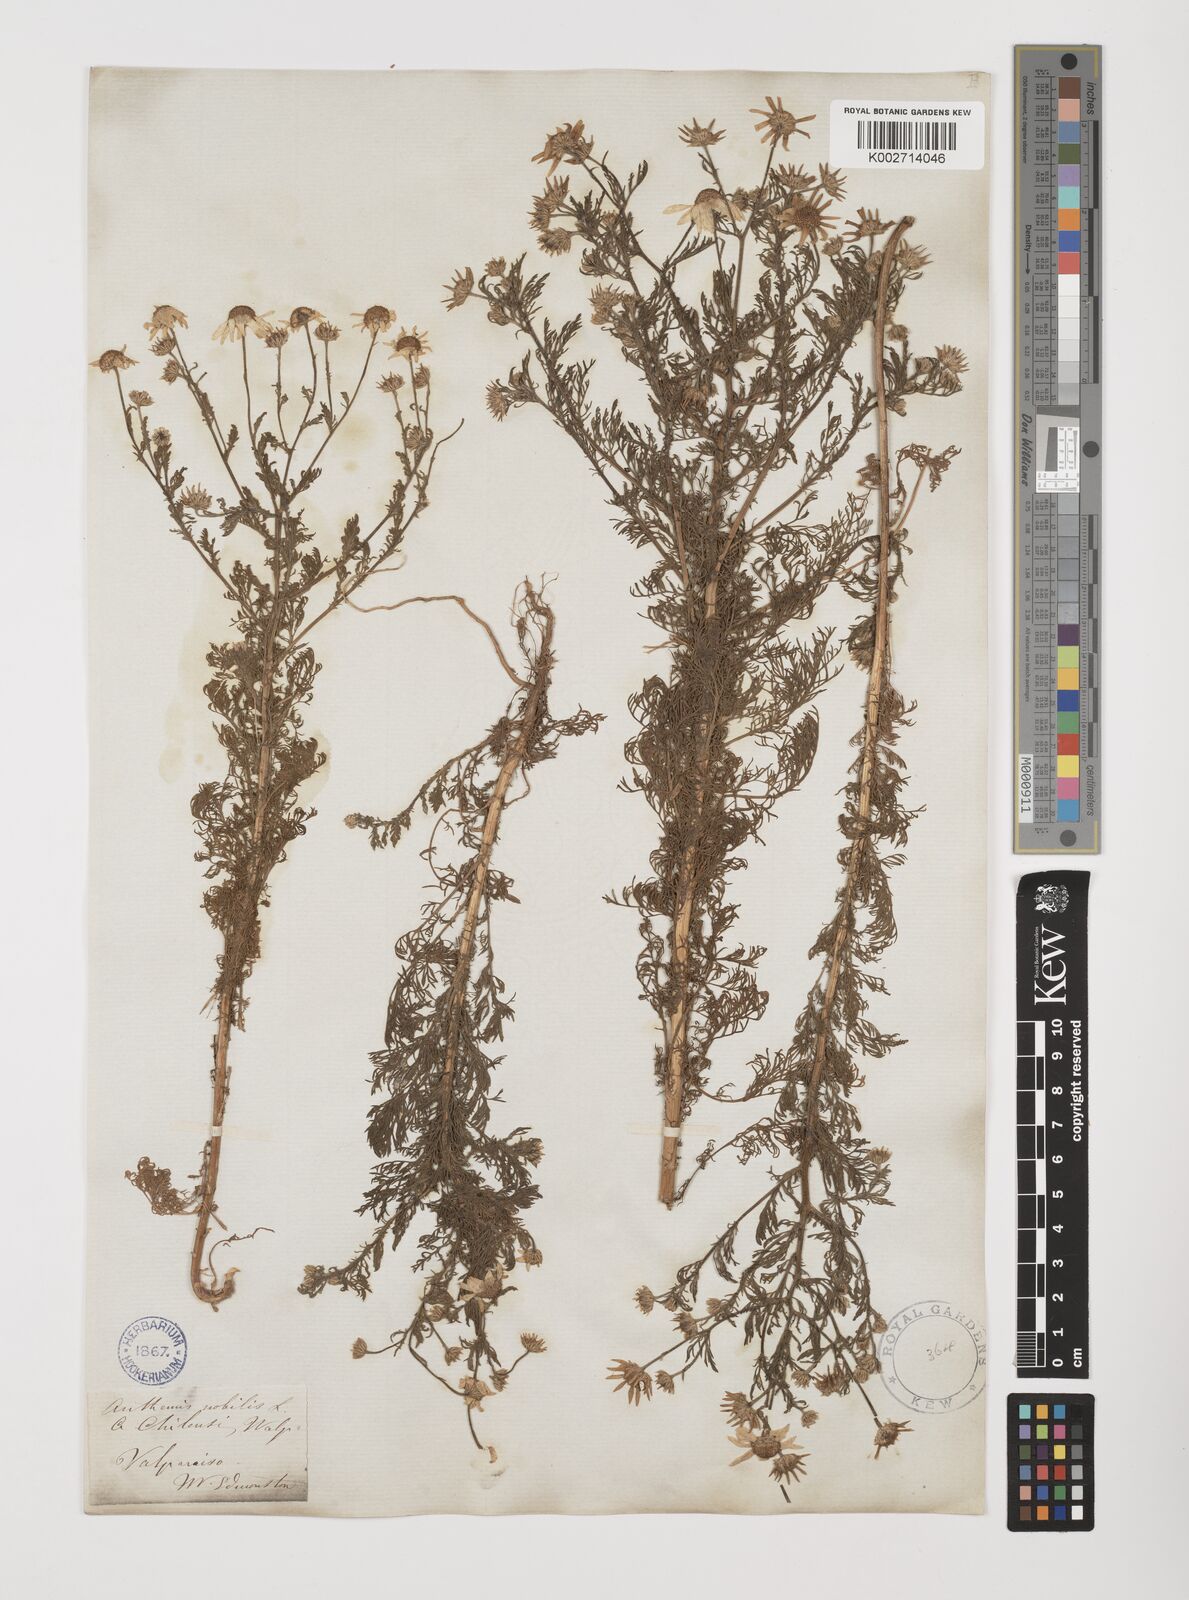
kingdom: Plantae
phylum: Tracheophyta
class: Magnoliopsida
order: Asterales
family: Asteraceae
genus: Anthemis
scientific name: Anthemis cotula
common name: Stinking chamomile
